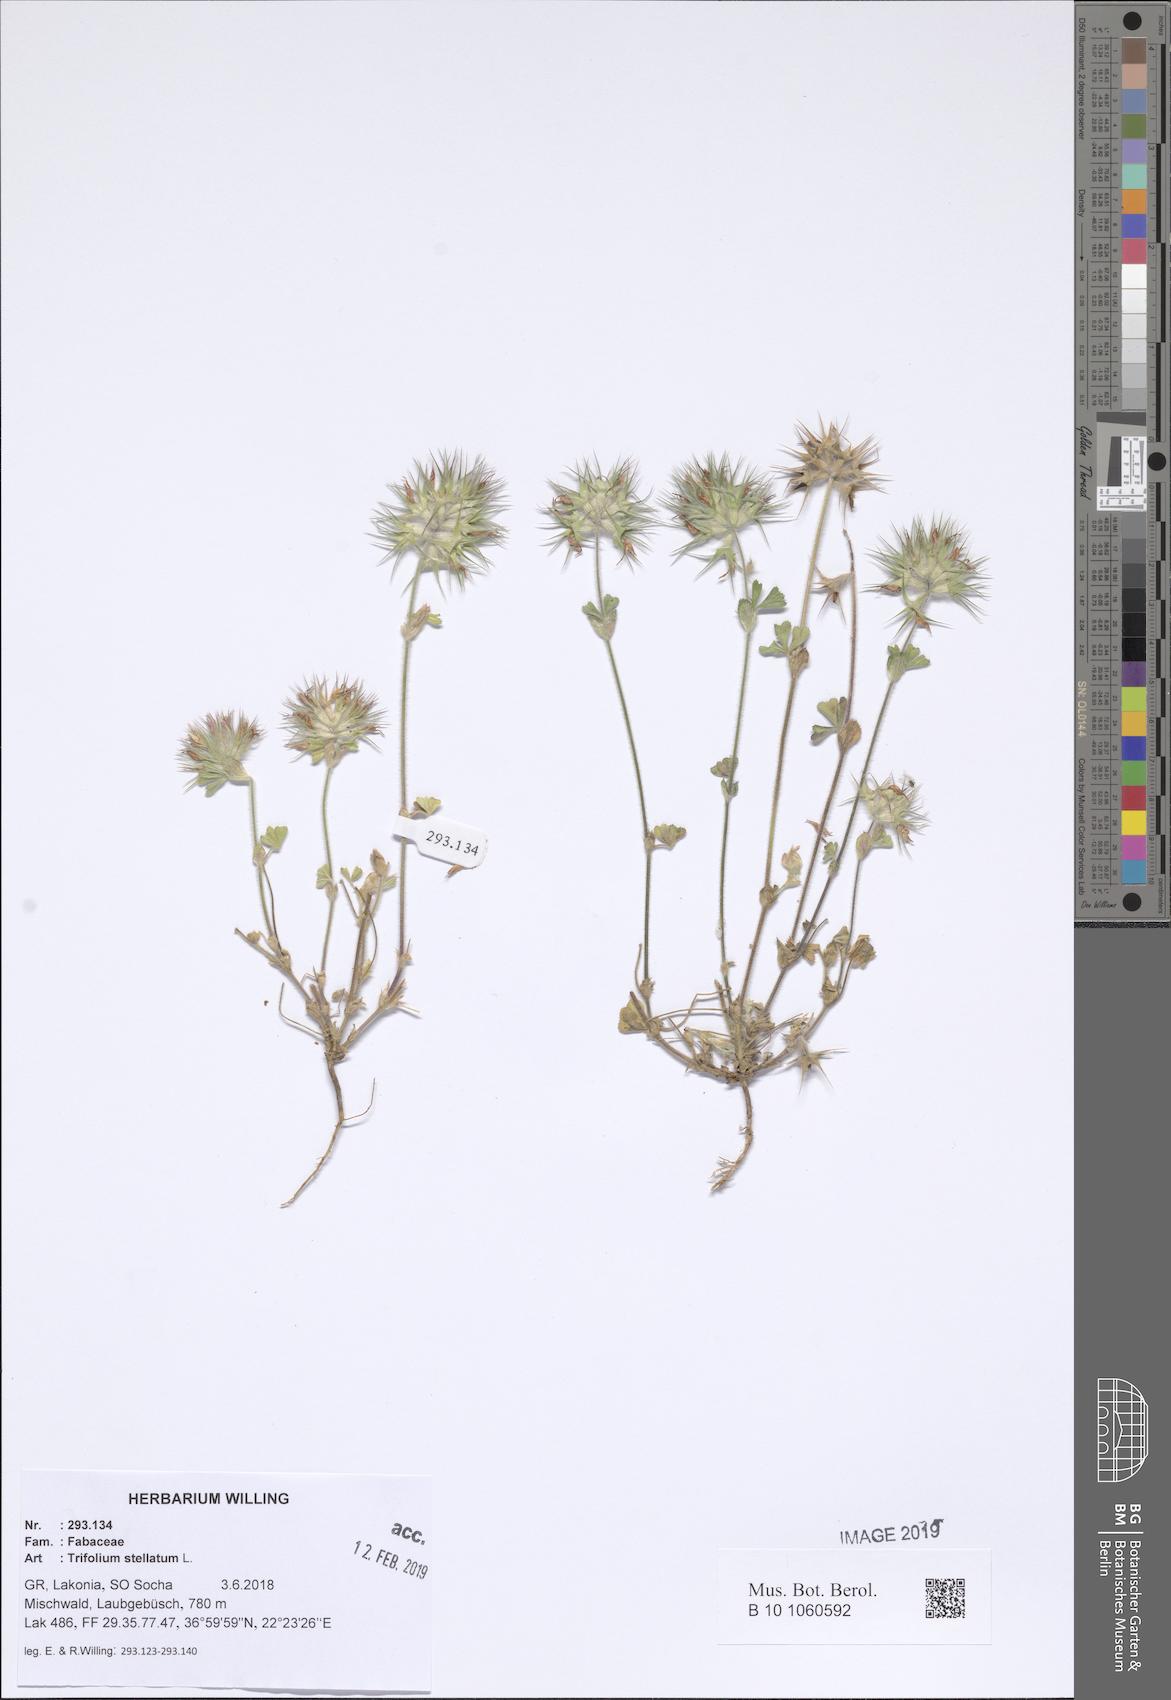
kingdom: Plantae
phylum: Tracheophyta
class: Magnoliopsida
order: Fabales
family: Fabaceae
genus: Trifolium
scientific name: Trifolium stellatum
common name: Starry clover
